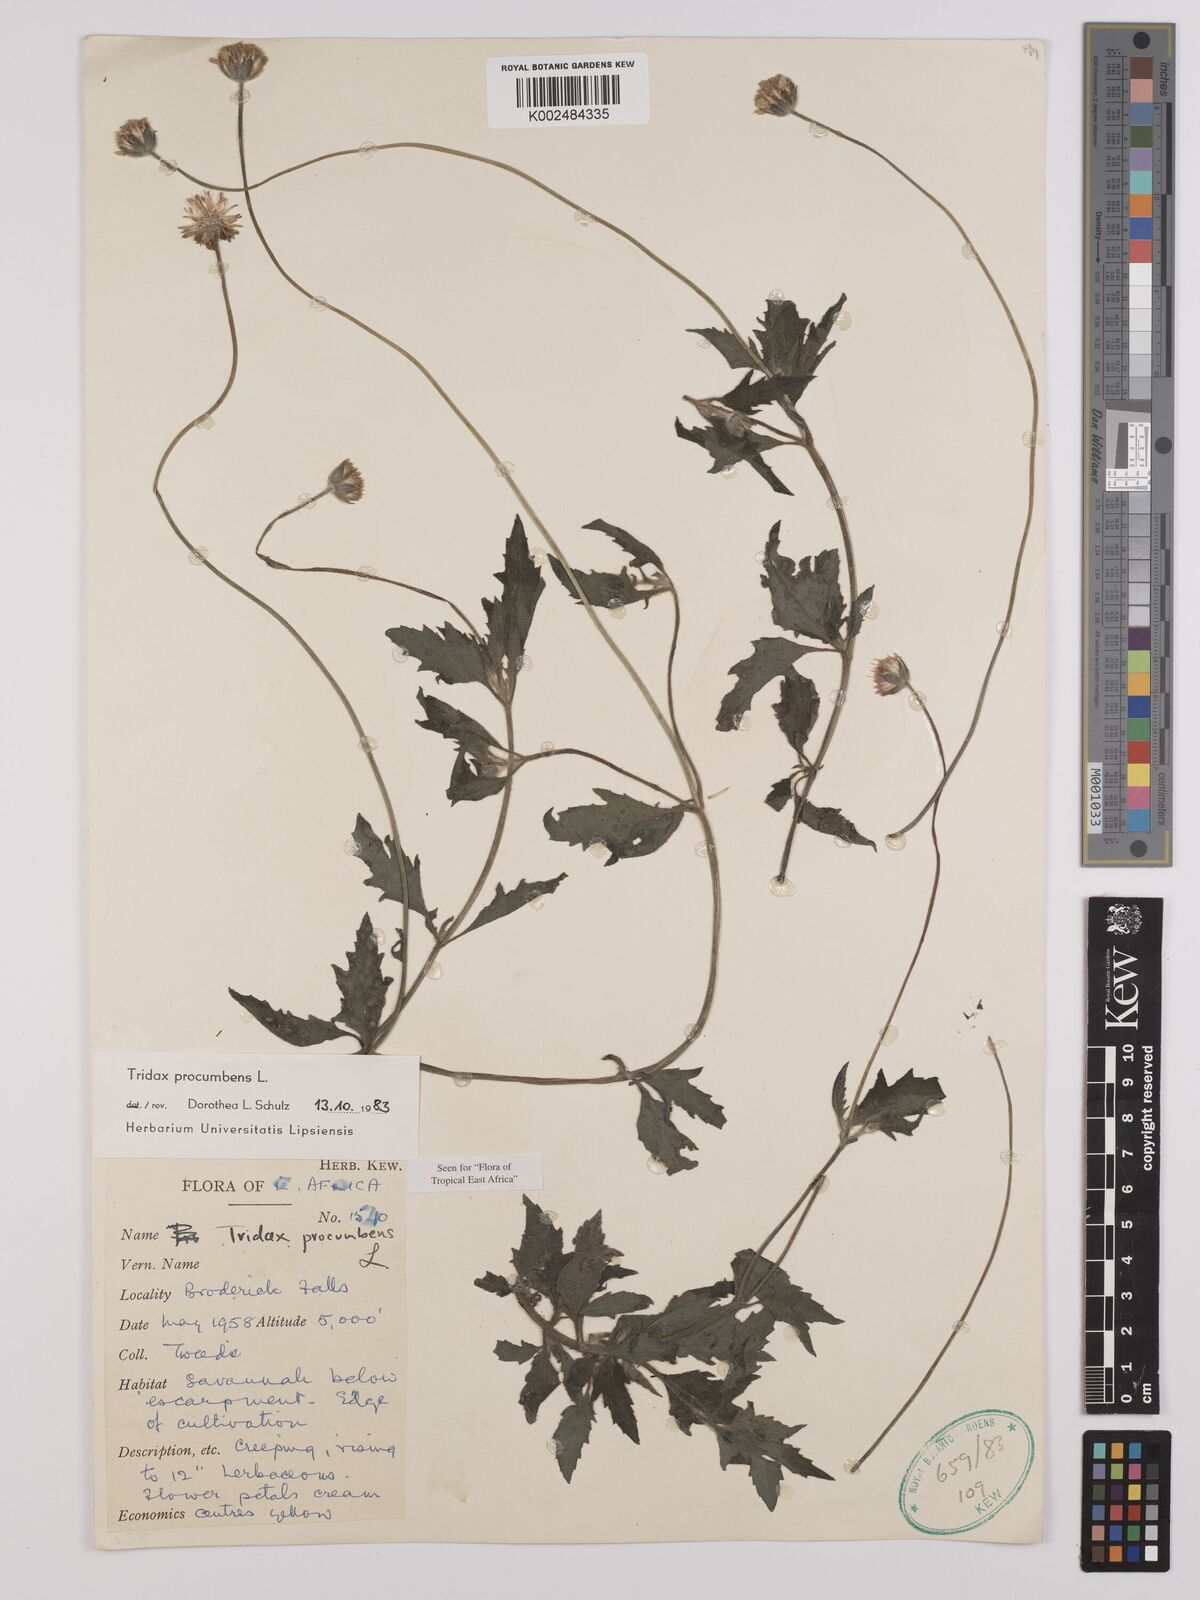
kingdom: Plantae
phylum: Tracheophyta
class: Magnoliopsida
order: Asterales
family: Asteraceae
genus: Tridax
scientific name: Tridax procumbens
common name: Coatbuttons
